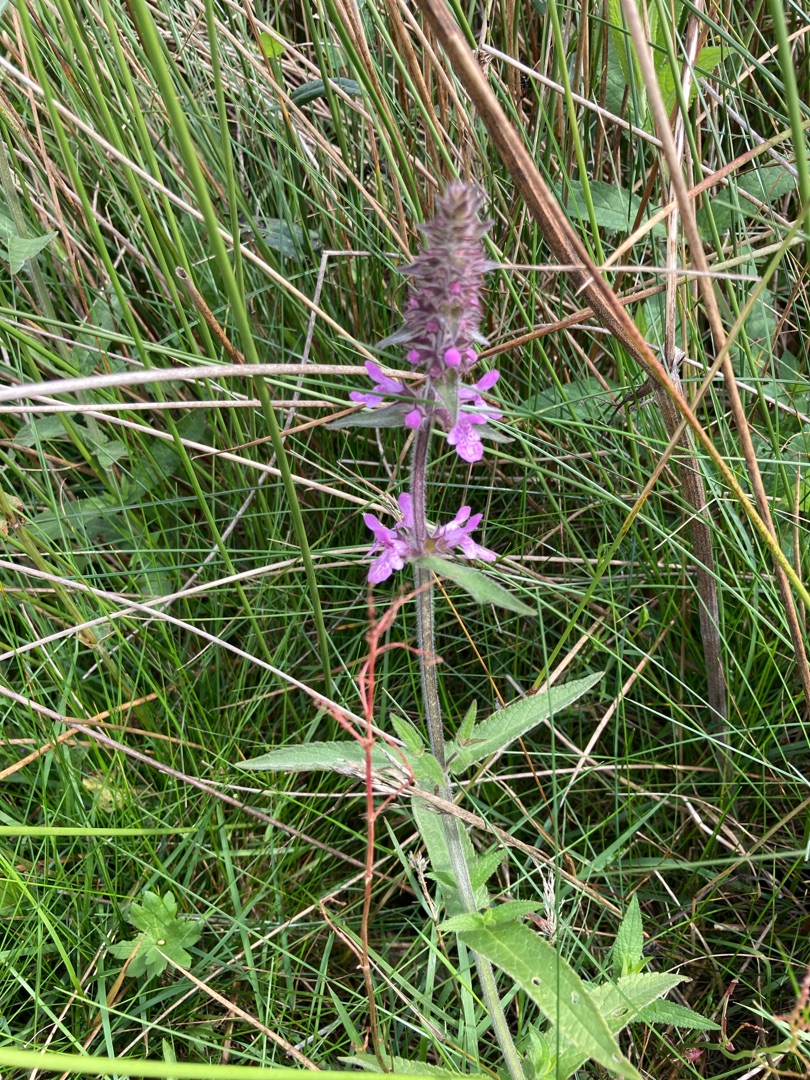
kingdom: Plantae
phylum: Tracheophyta
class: Magnoliopsida
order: Lamiales
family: Lamiaceae
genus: Stachys
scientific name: Stachys palustris
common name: Kær-galtetand
